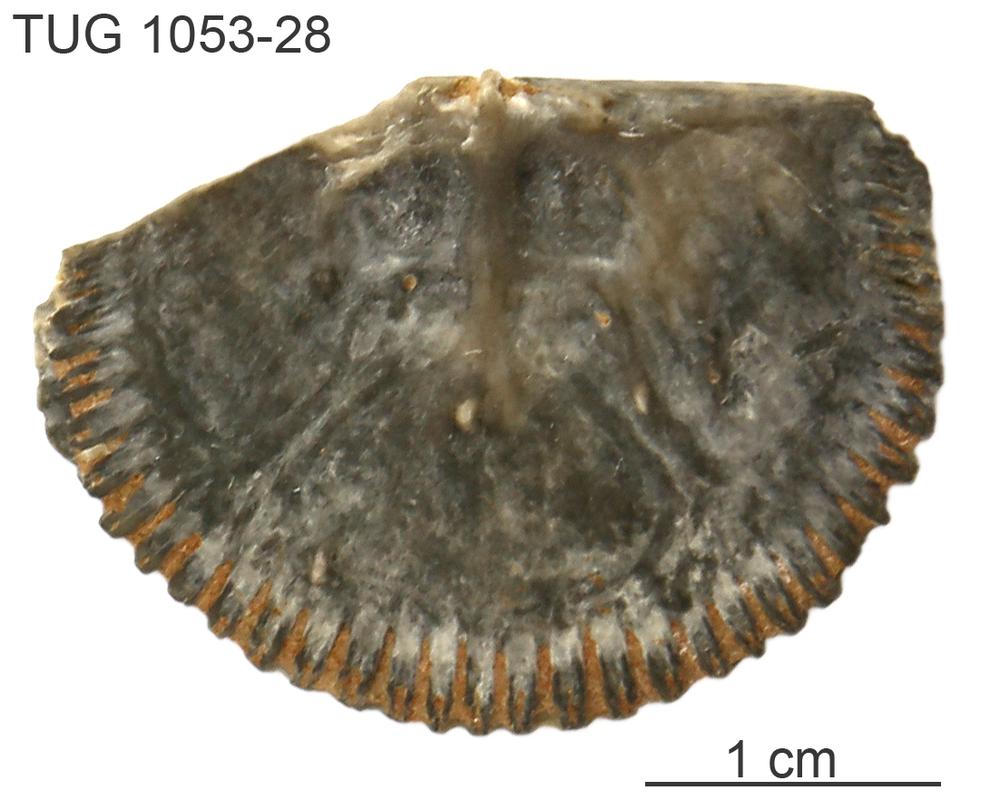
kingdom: Animalia
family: Cornulitidae
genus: Cornulites
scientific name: Cornulites
